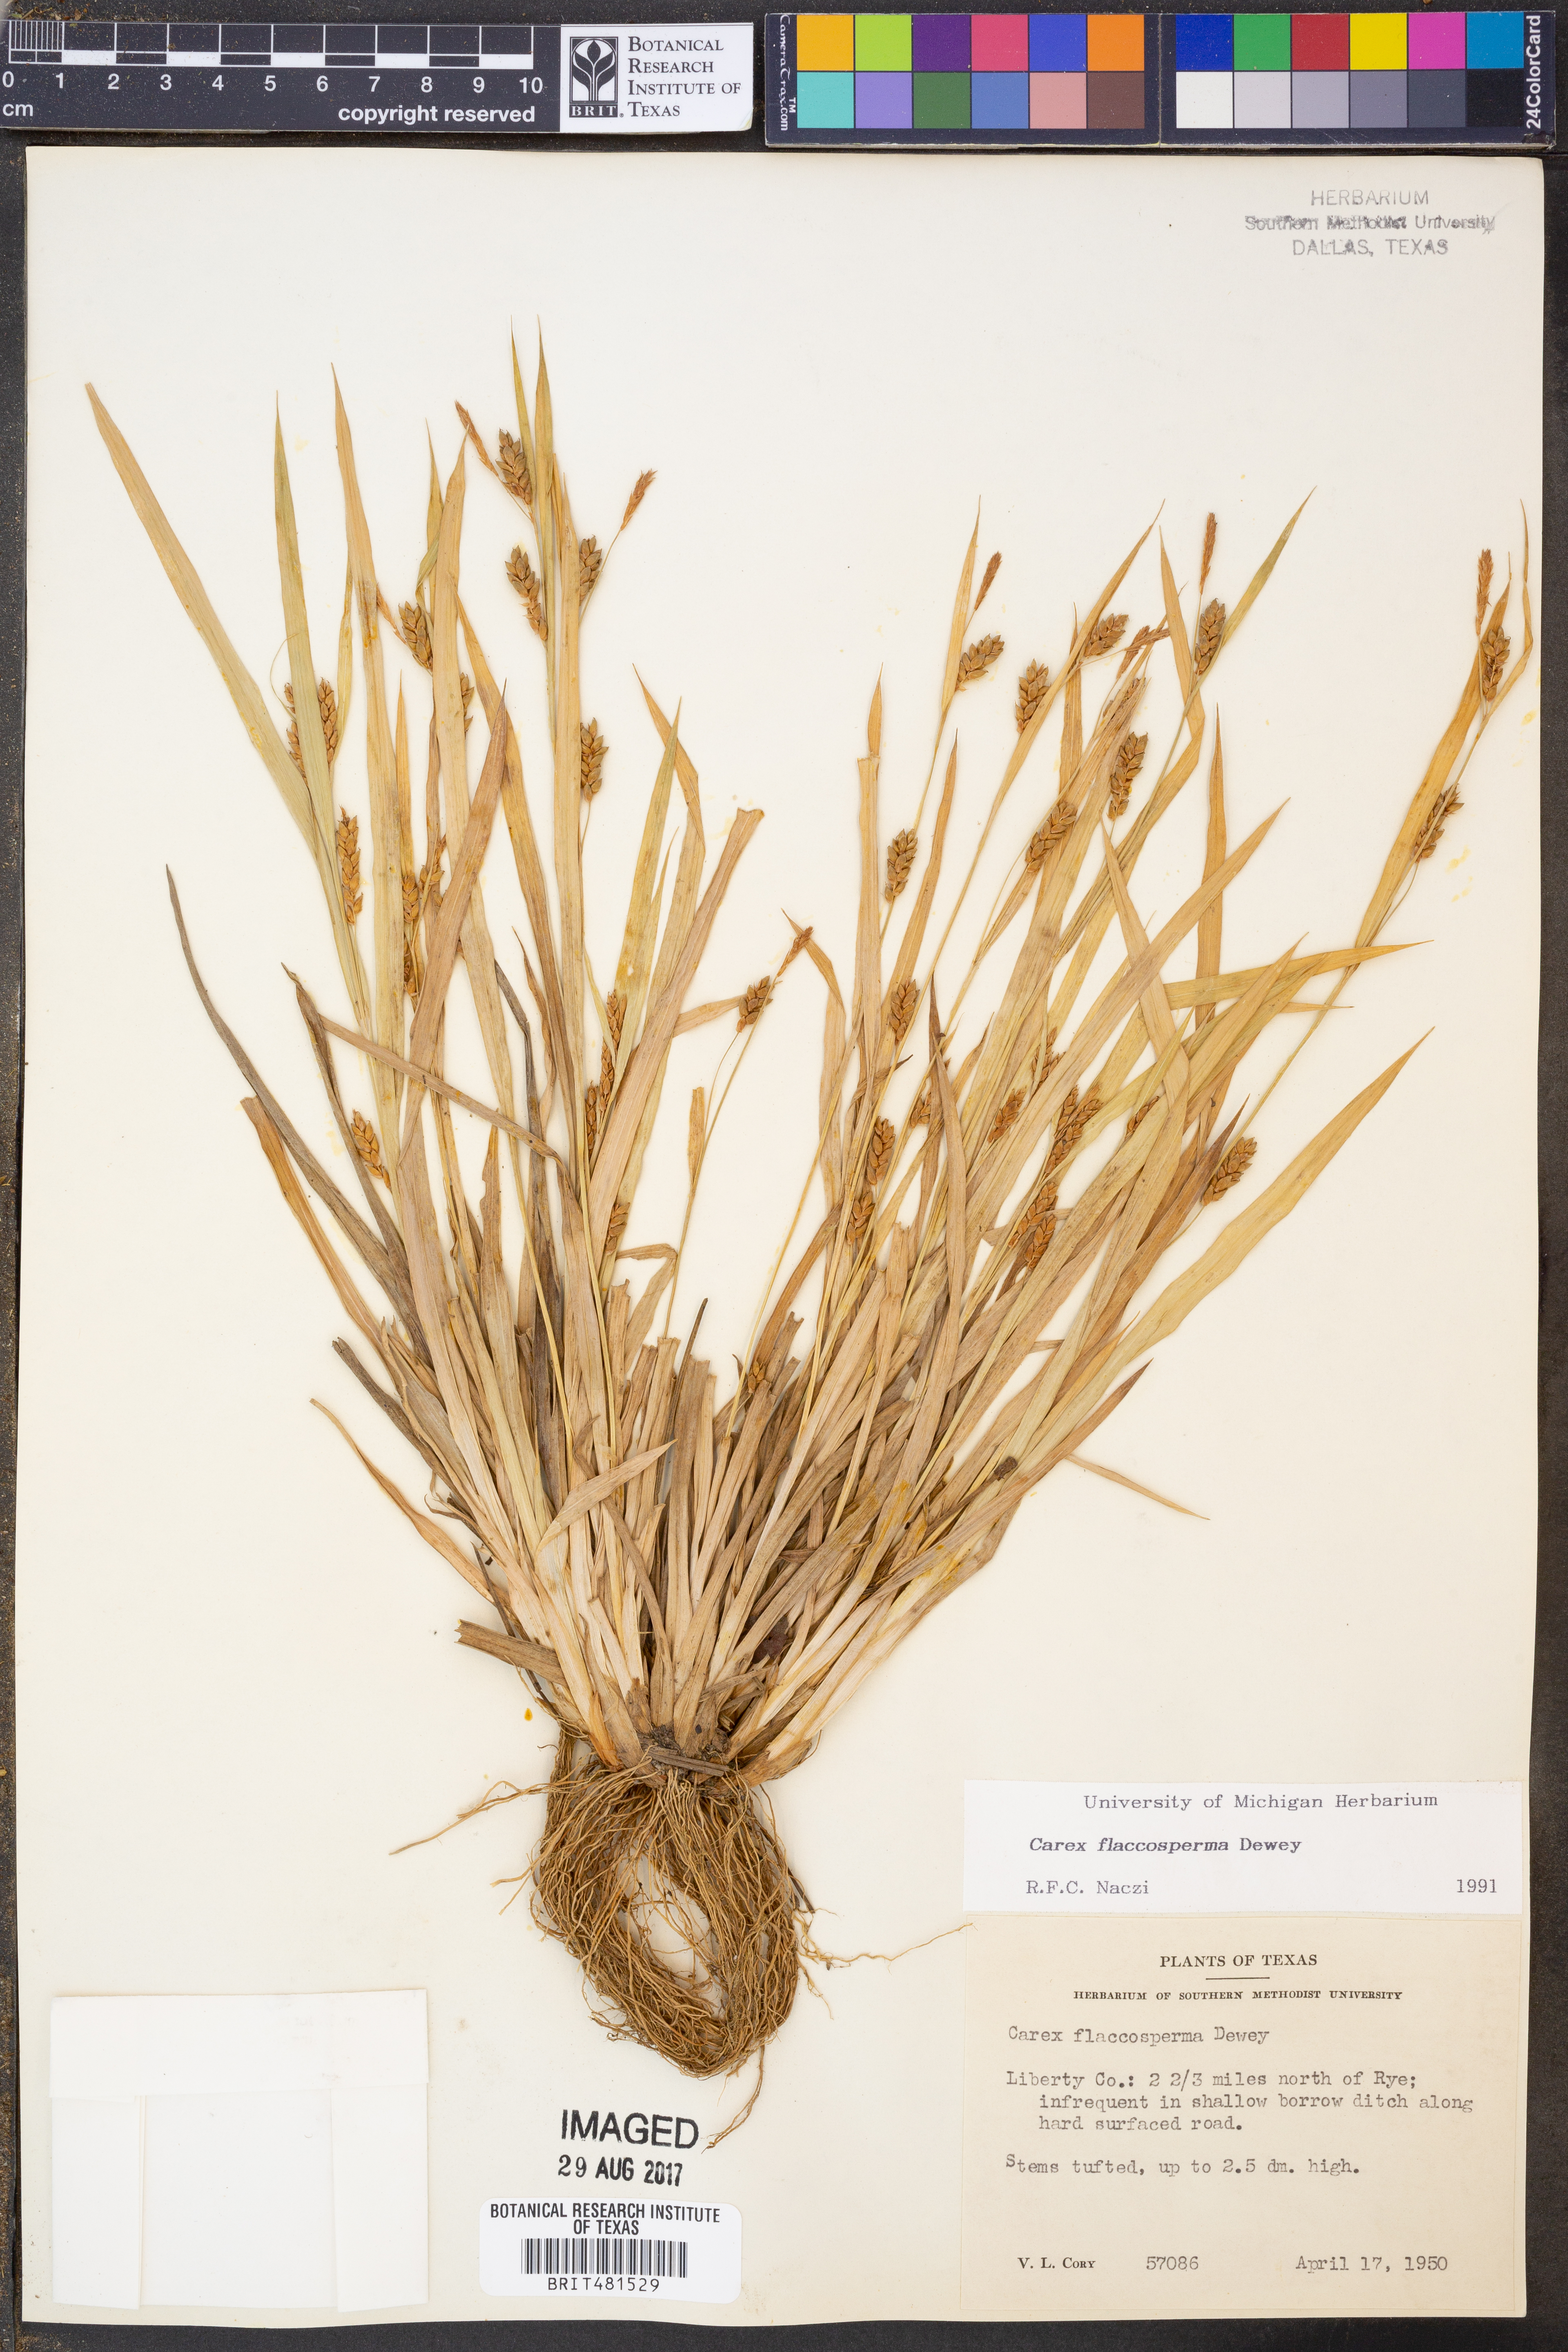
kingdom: Plantae
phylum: Tracheophyta
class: Liliopsida
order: Poales
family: Cyperaceae
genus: Carex
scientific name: Carex flaccosperma
